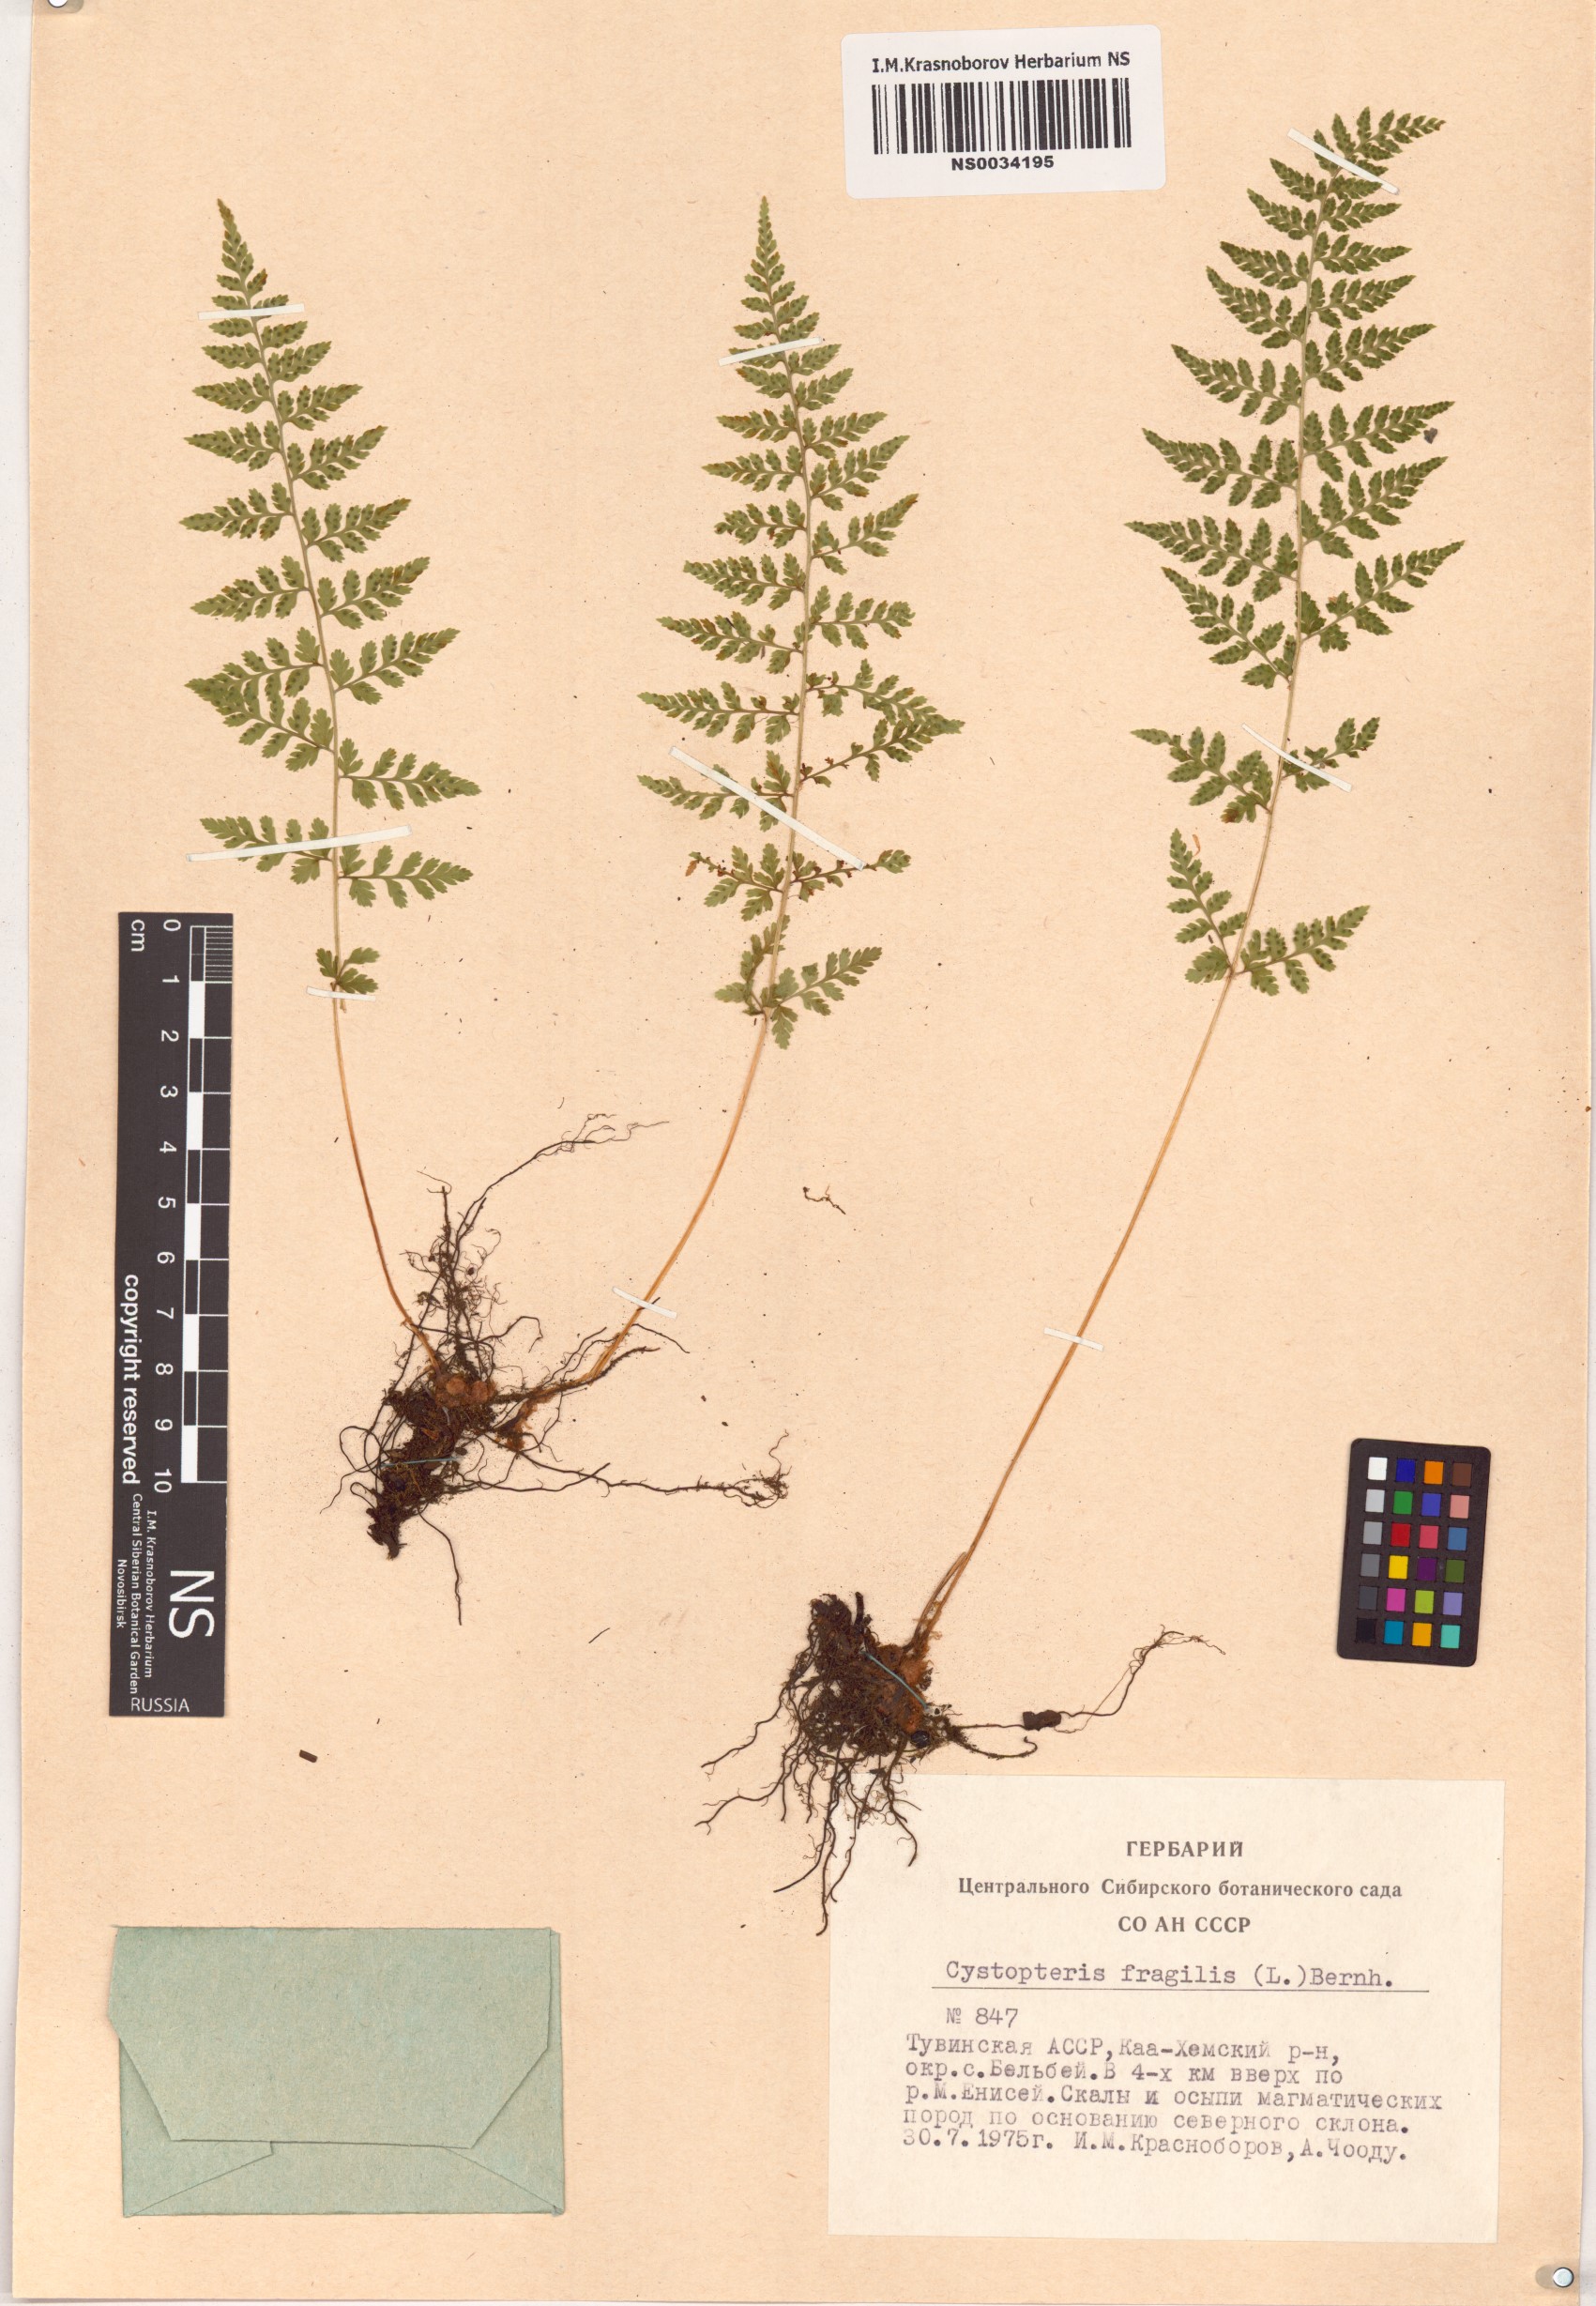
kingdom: Plantae
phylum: Tracheophyta
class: Polypodiopsida
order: Polypodiales
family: Cystopteridaceae
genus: Cystopteris
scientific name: Cystopteris fragilis
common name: Brittle bladder fern
